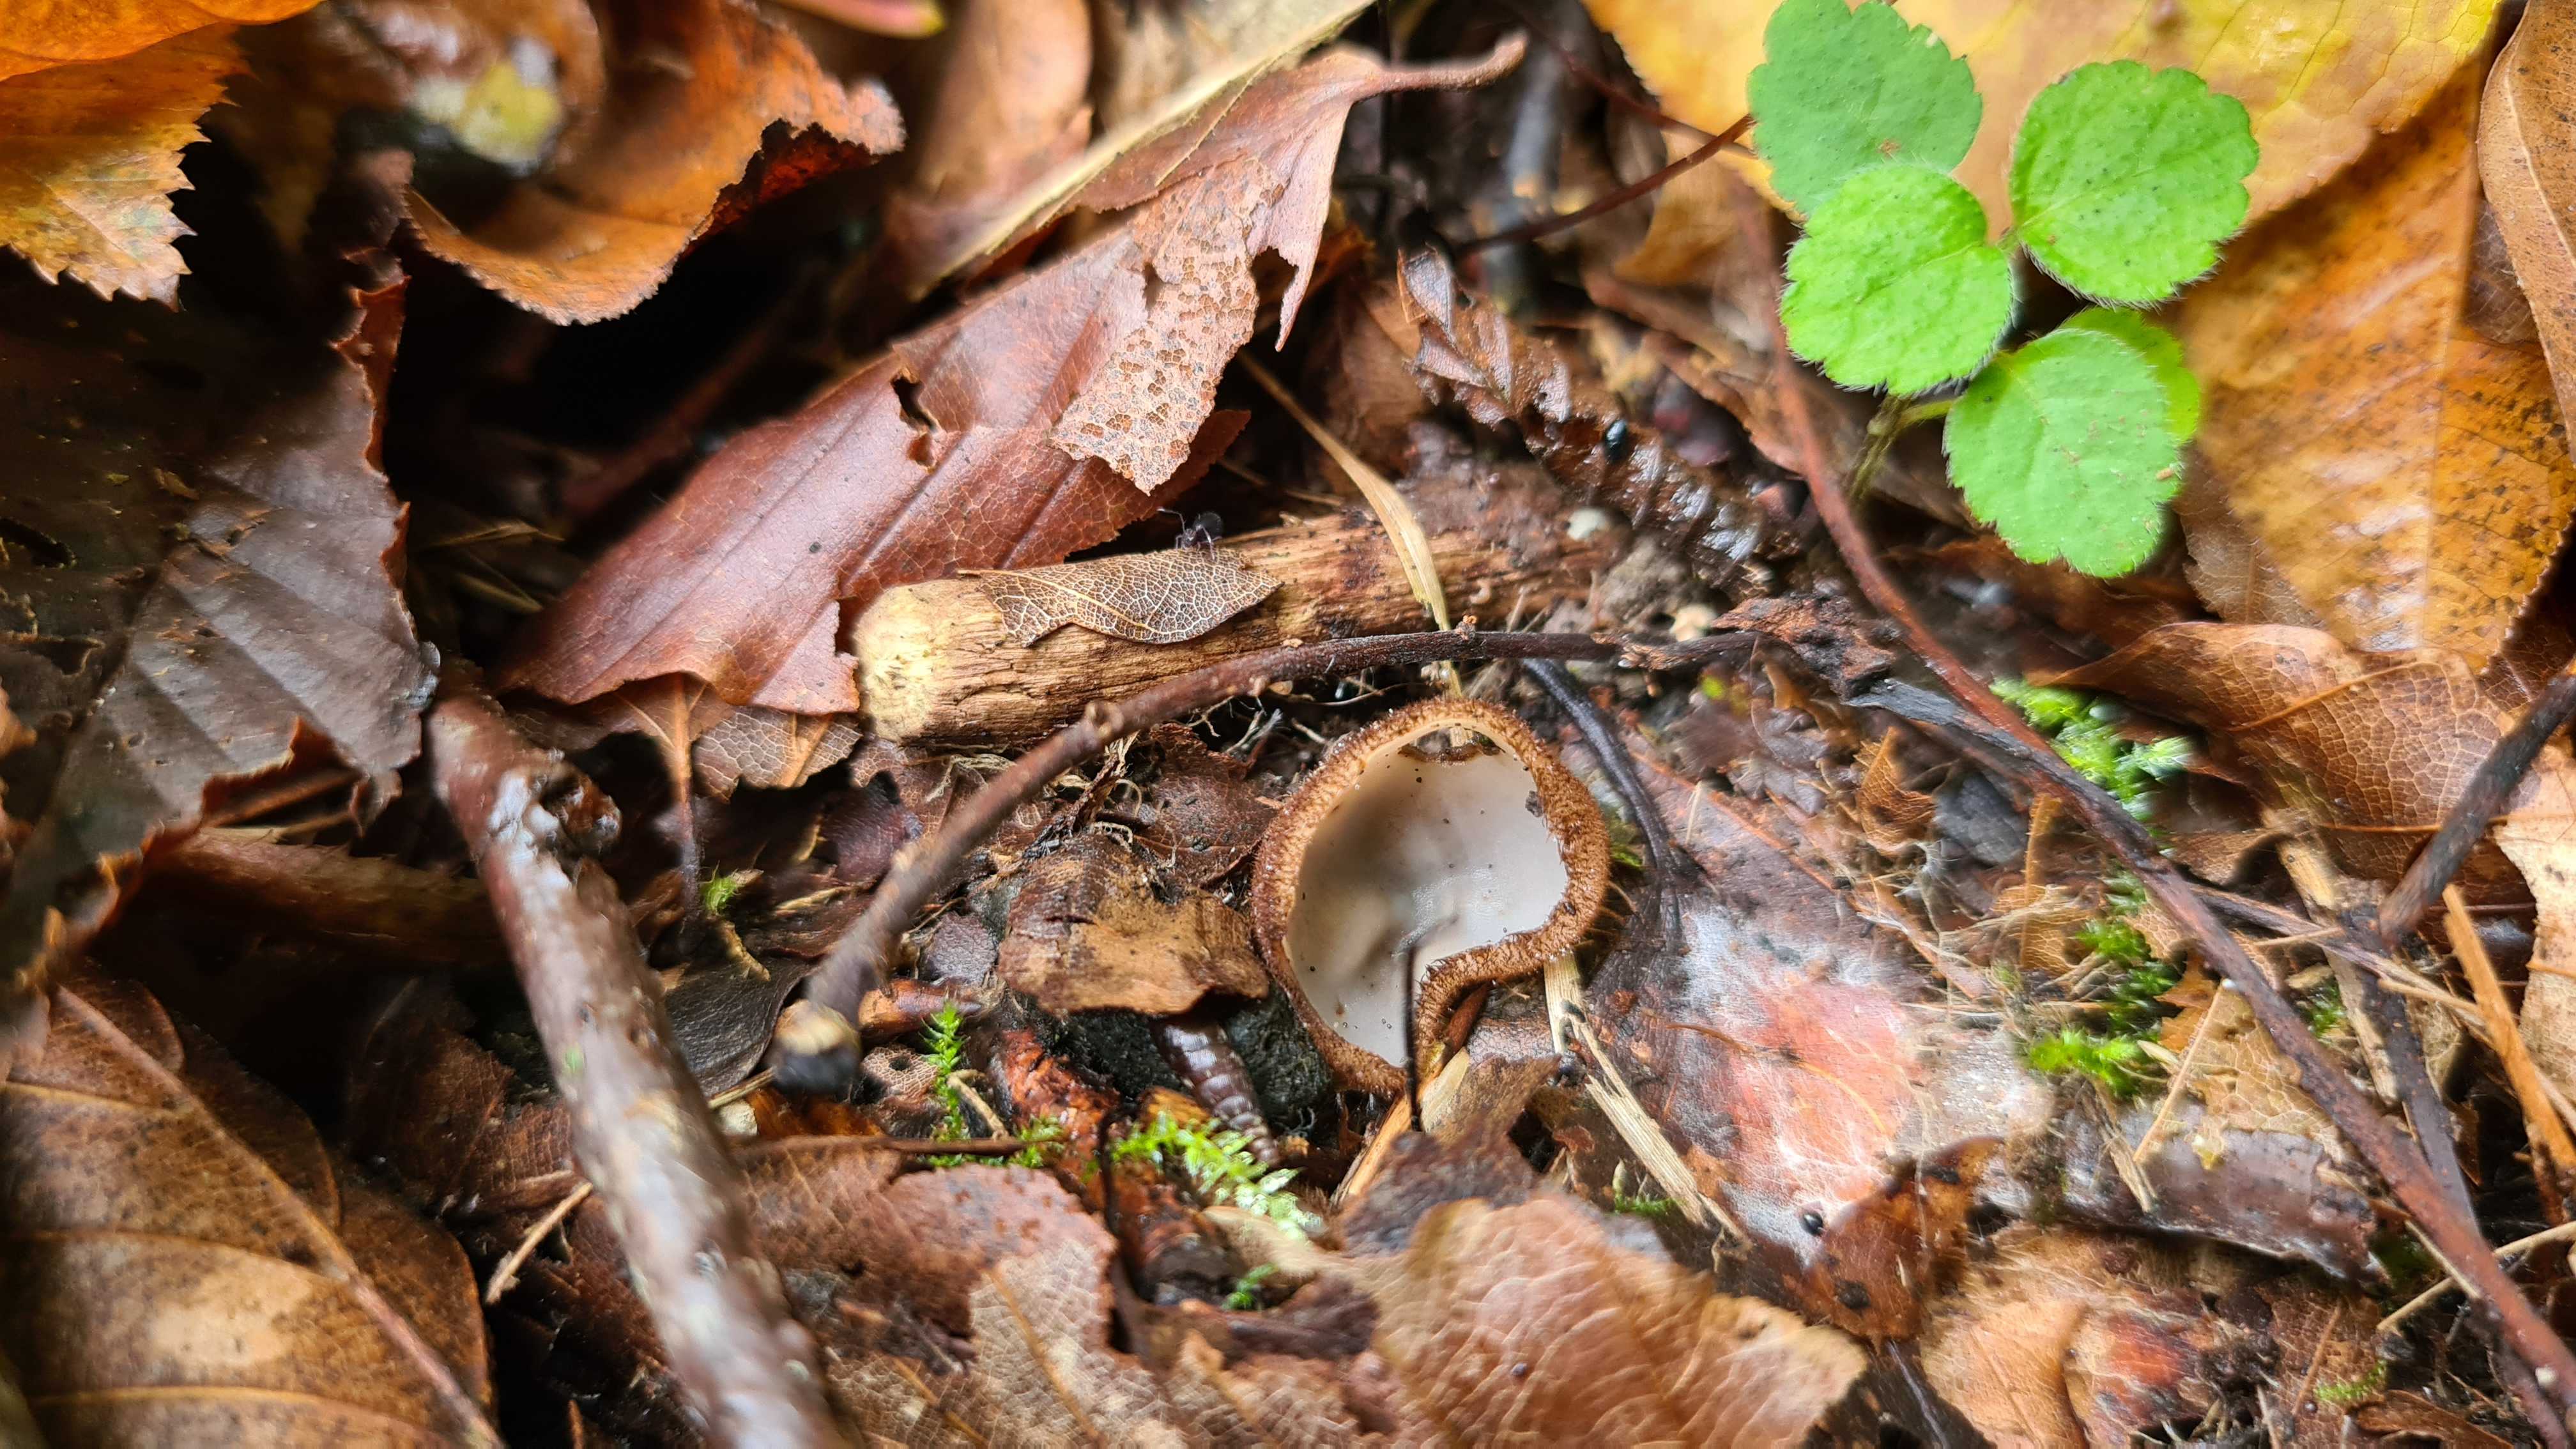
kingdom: Fungi
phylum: Ascomycota
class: Pezizomycetes
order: Pezizales
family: Pyronemataceae
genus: Humaria
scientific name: Humaria hemisphaerica
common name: halvkugleformet børstebæger
